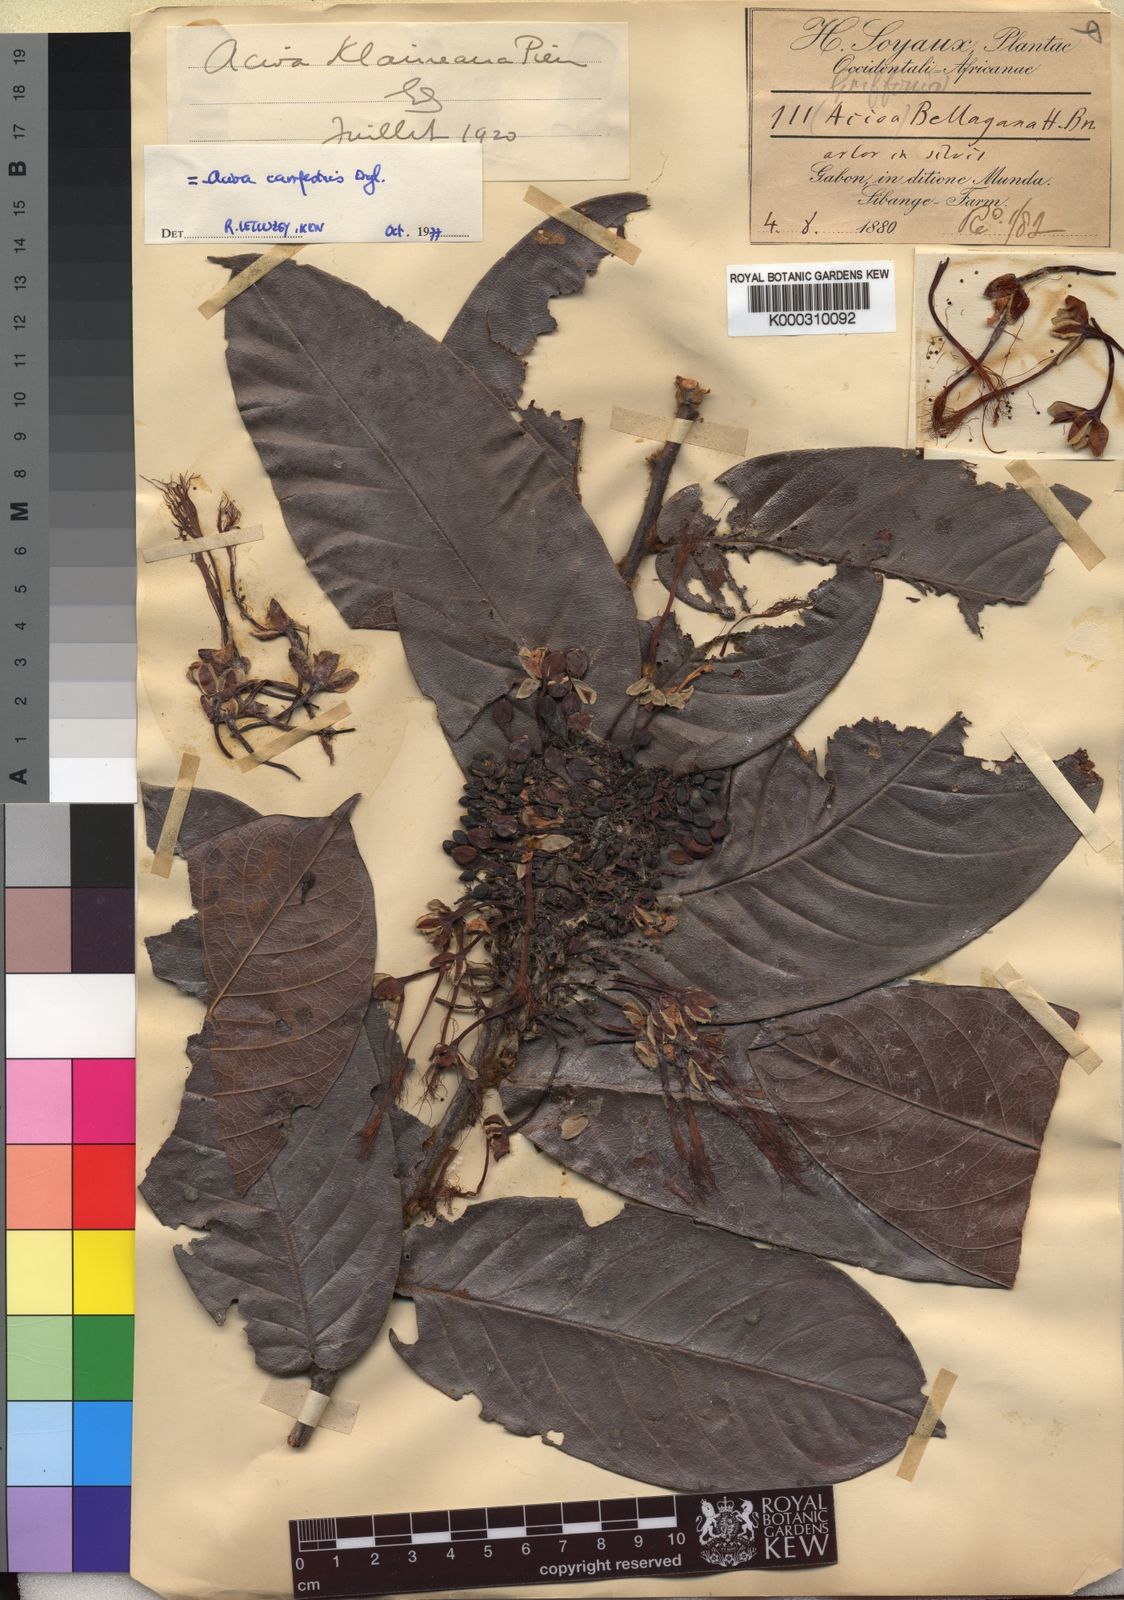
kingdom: Plantae
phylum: Tracheophyta
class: Magnoliopsida
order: Malpighiales
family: Chrysobalanaceae
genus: Dactyladenia
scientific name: Dactyladenia campestris
